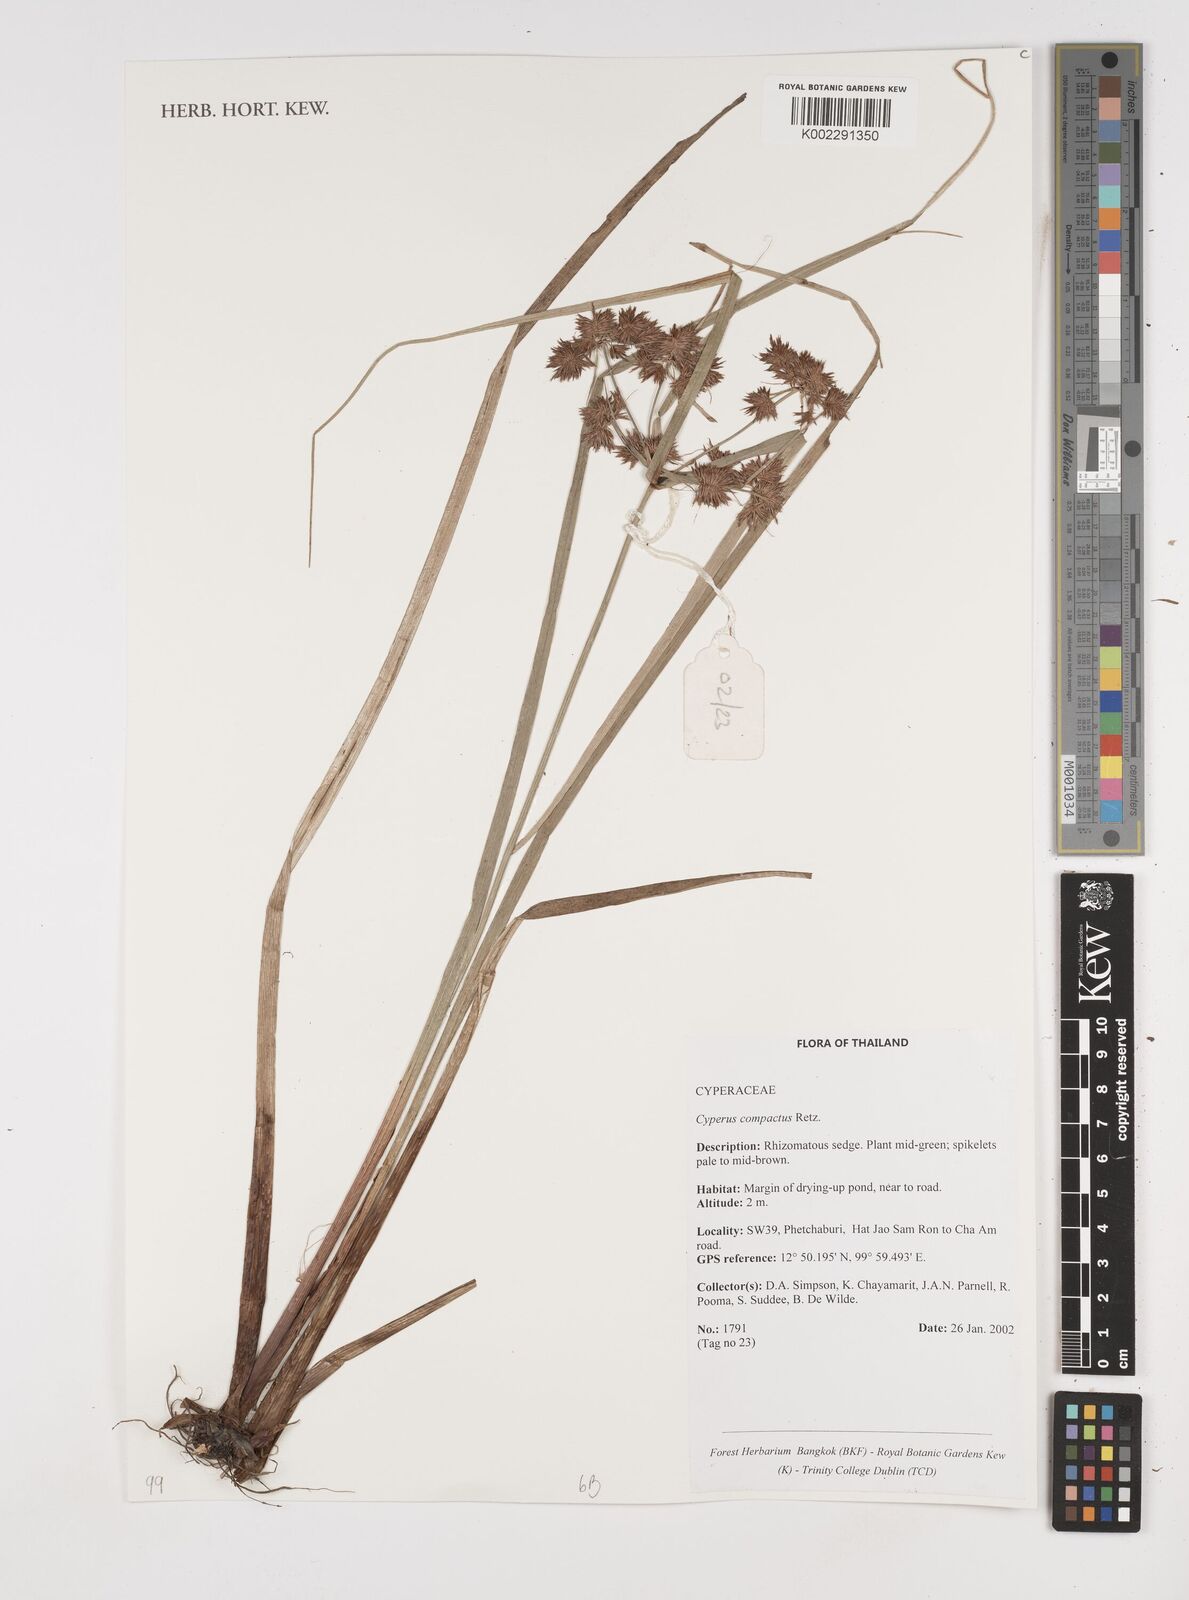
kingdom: Plantae
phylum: Tracheophyta
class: Liliopsida
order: Poales
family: Cyperaceae
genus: Cyperus
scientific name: Cyperus compactus
